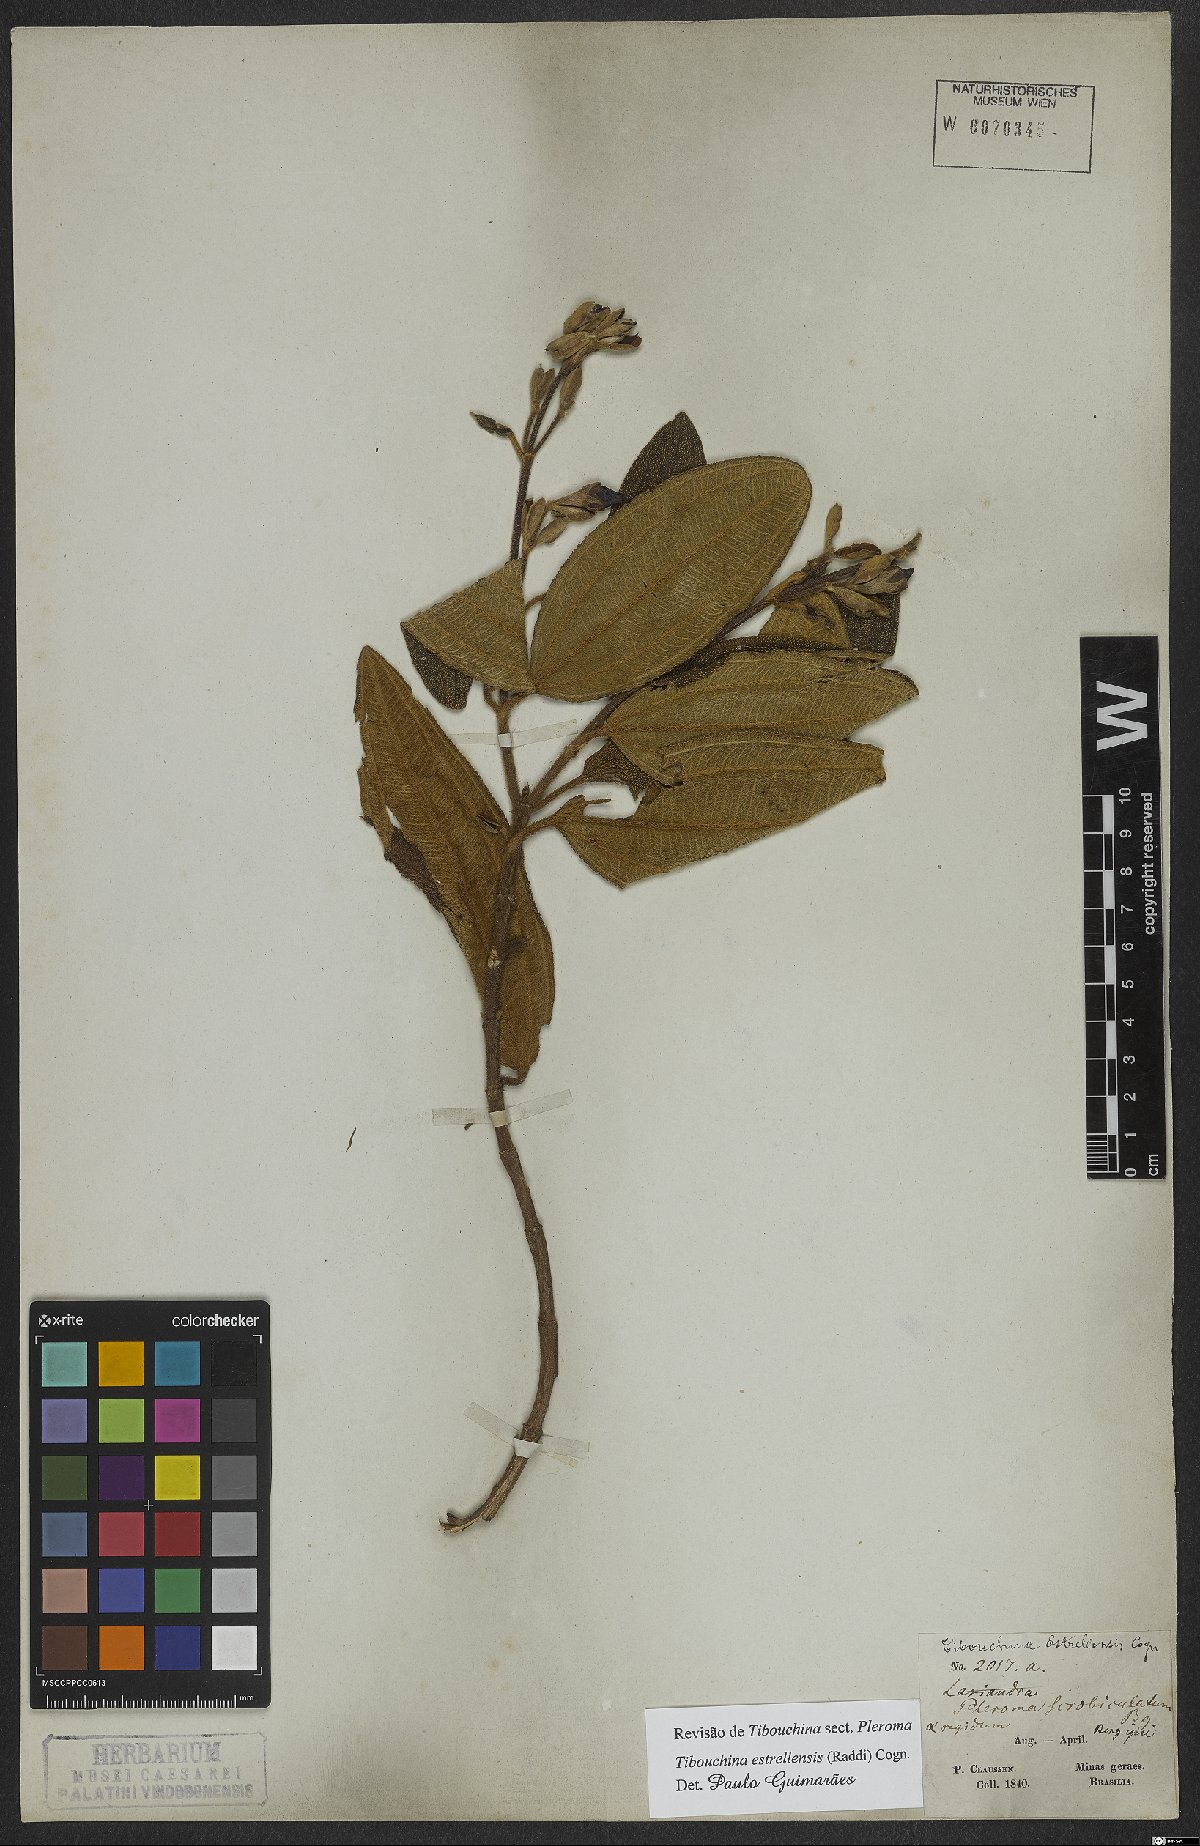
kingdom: Plantae
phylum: Tracheophyta
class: Magnoliopsida
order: Myrtales
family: Melastomataceae
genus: Pleroma
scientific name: Pleroma estrellense
